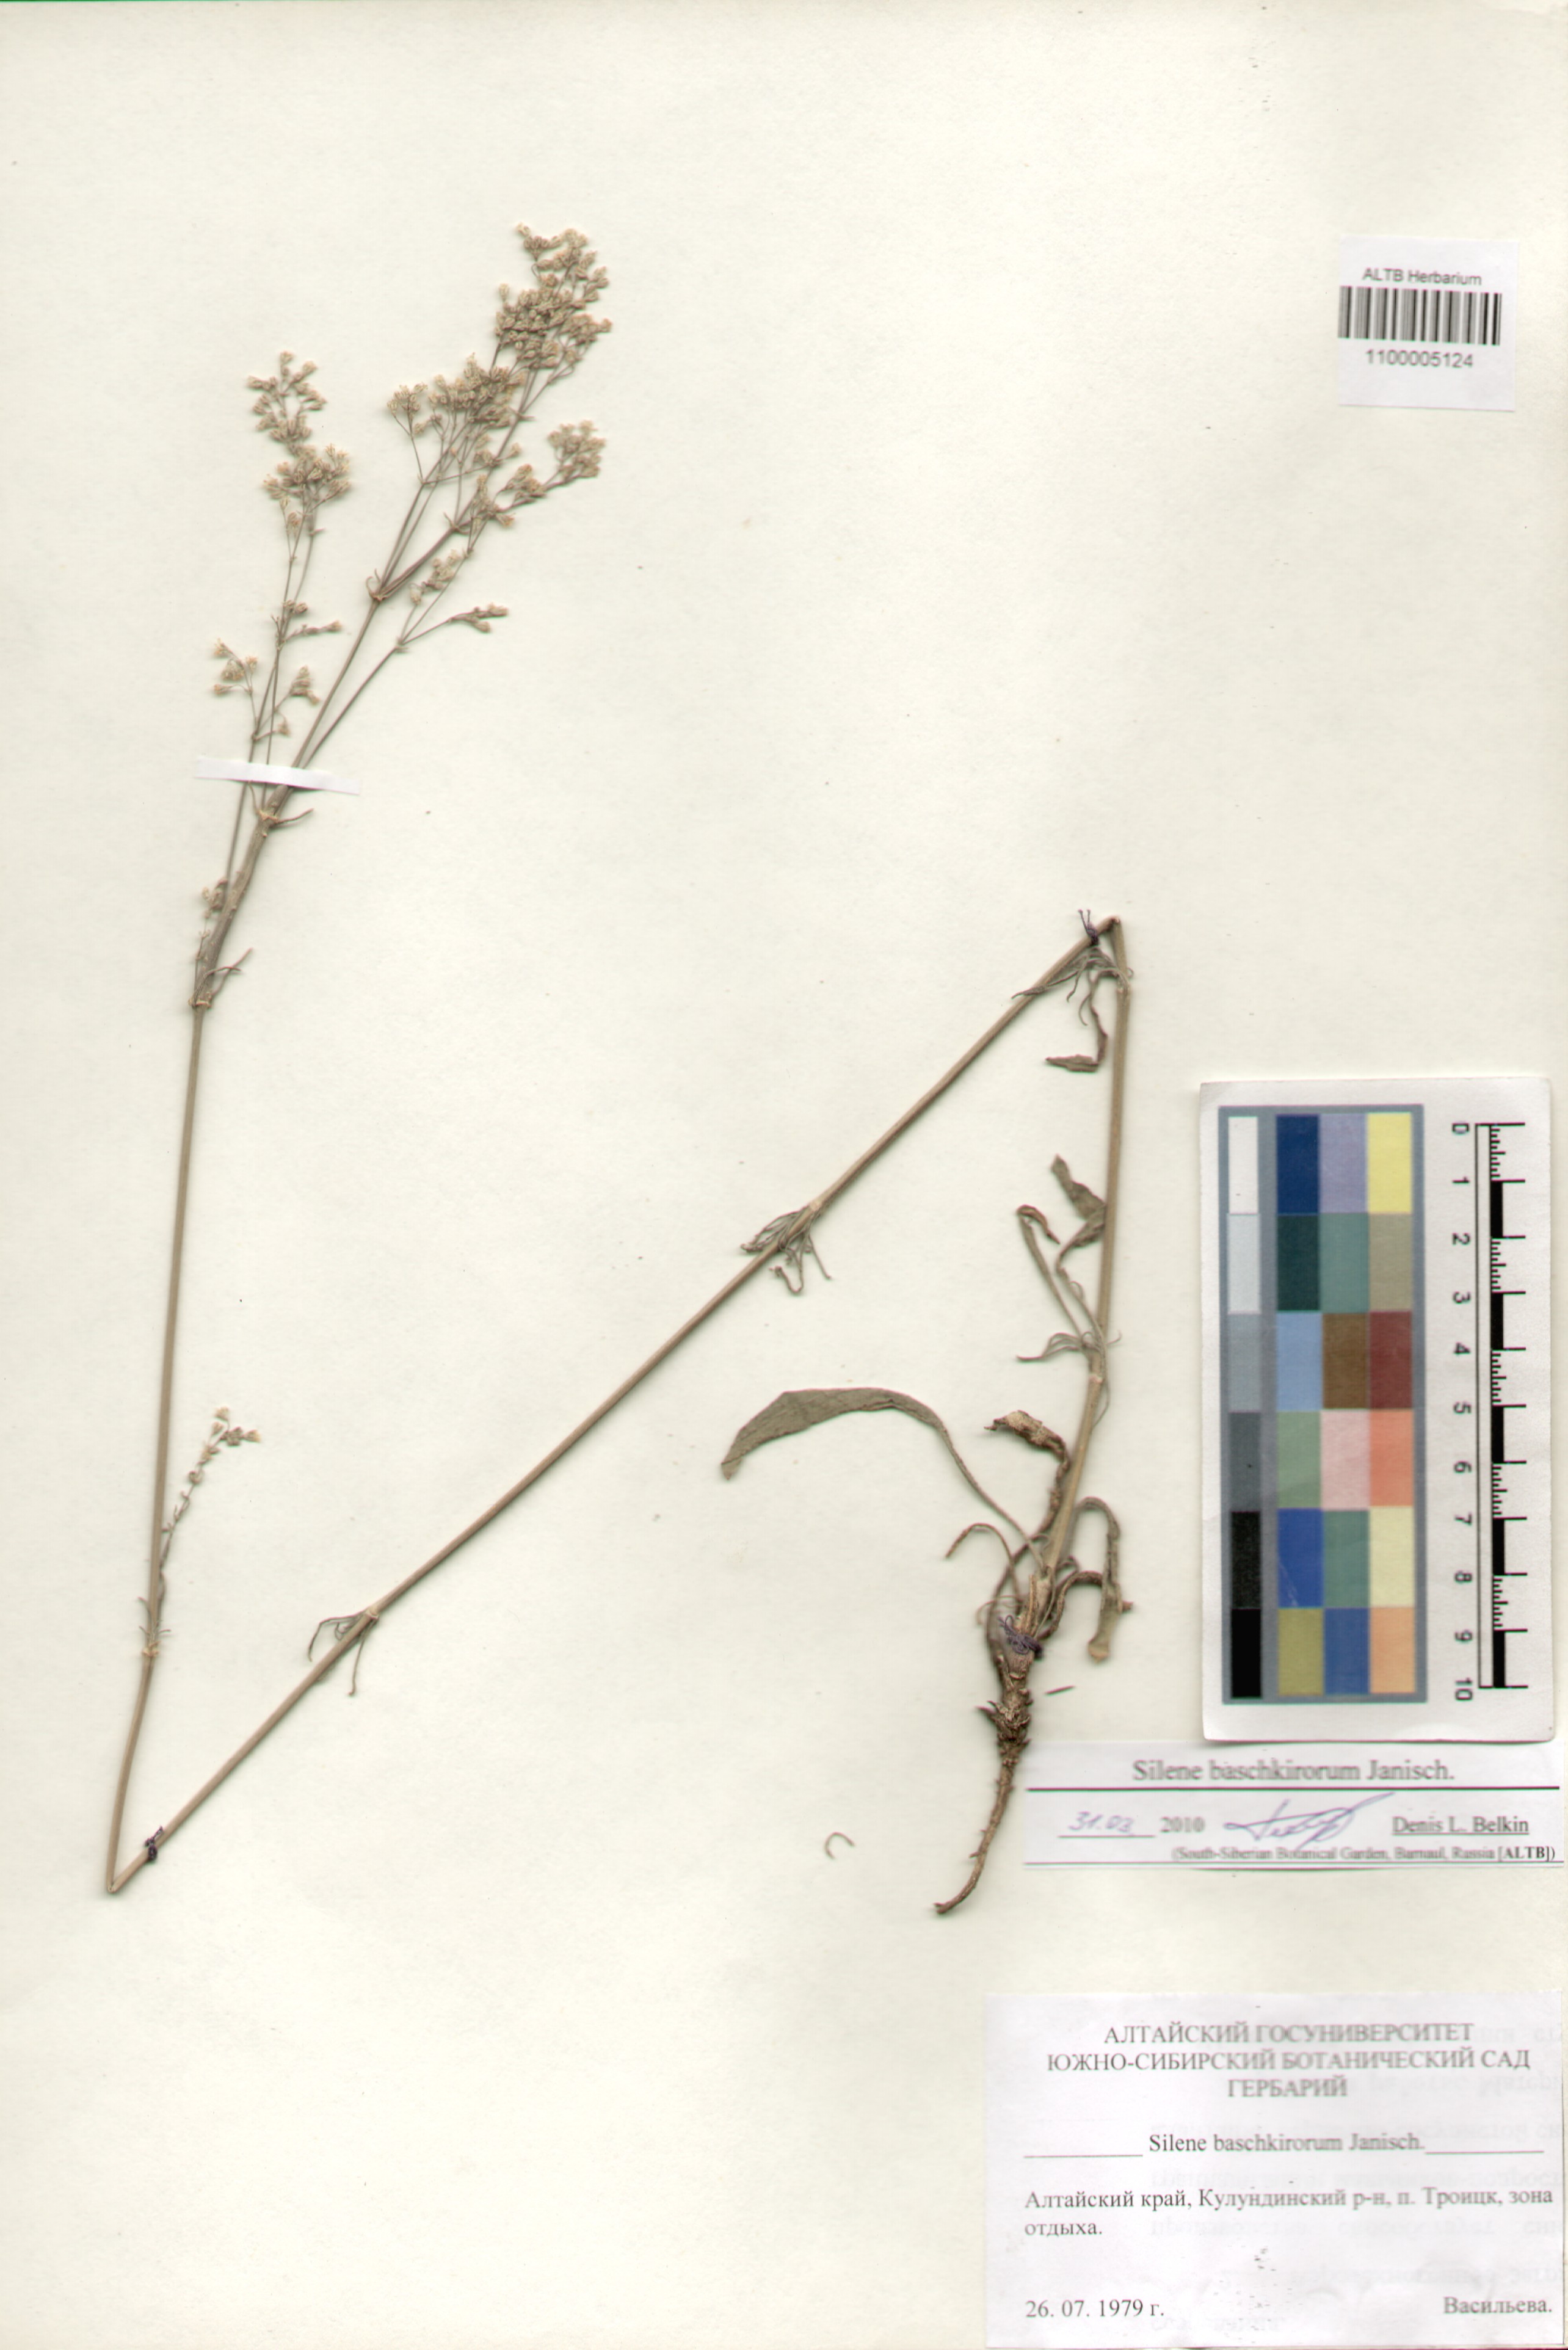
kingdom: Plantae
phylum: Tracheophyta
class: Magnoliopsida
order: Caryophyllales
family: Caryophyllaceae
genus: Silene
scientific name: Silene baschkirorum
